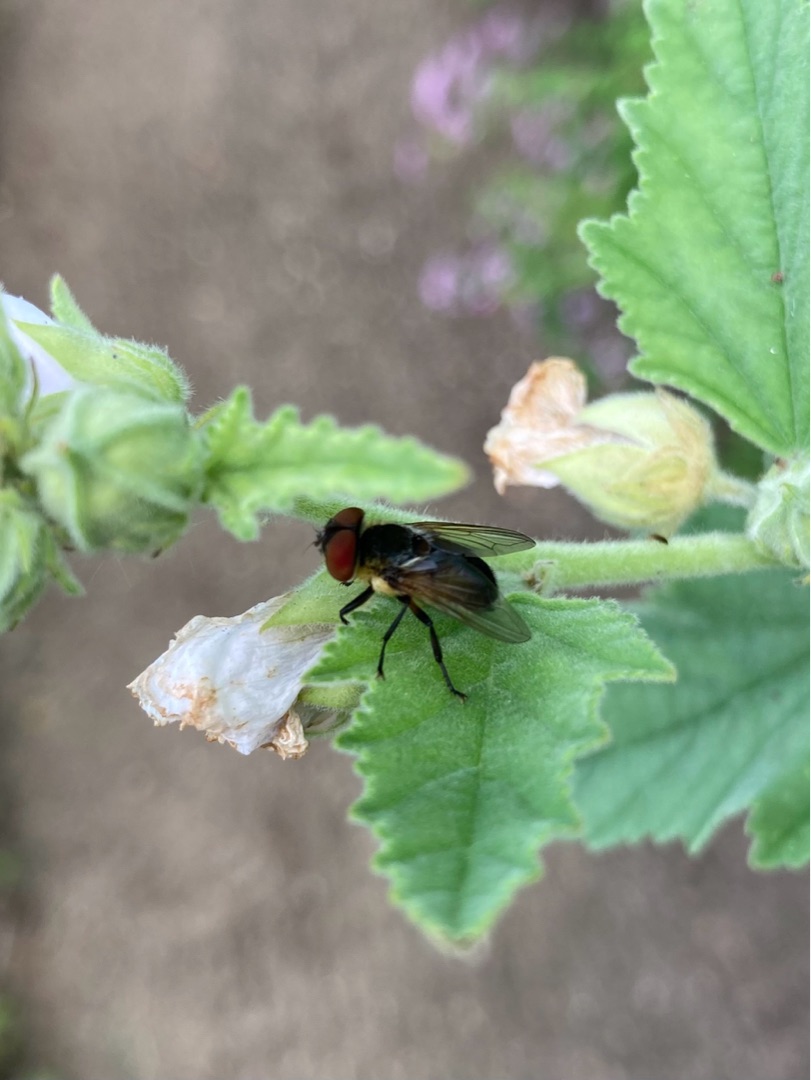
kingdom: Animalia
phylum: Arthropoda
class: Insecta
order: Diptera
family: Tachinidae
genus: Phasia
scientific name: Phasia hemiptera
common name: Blåvinget pragtsnylteflue
